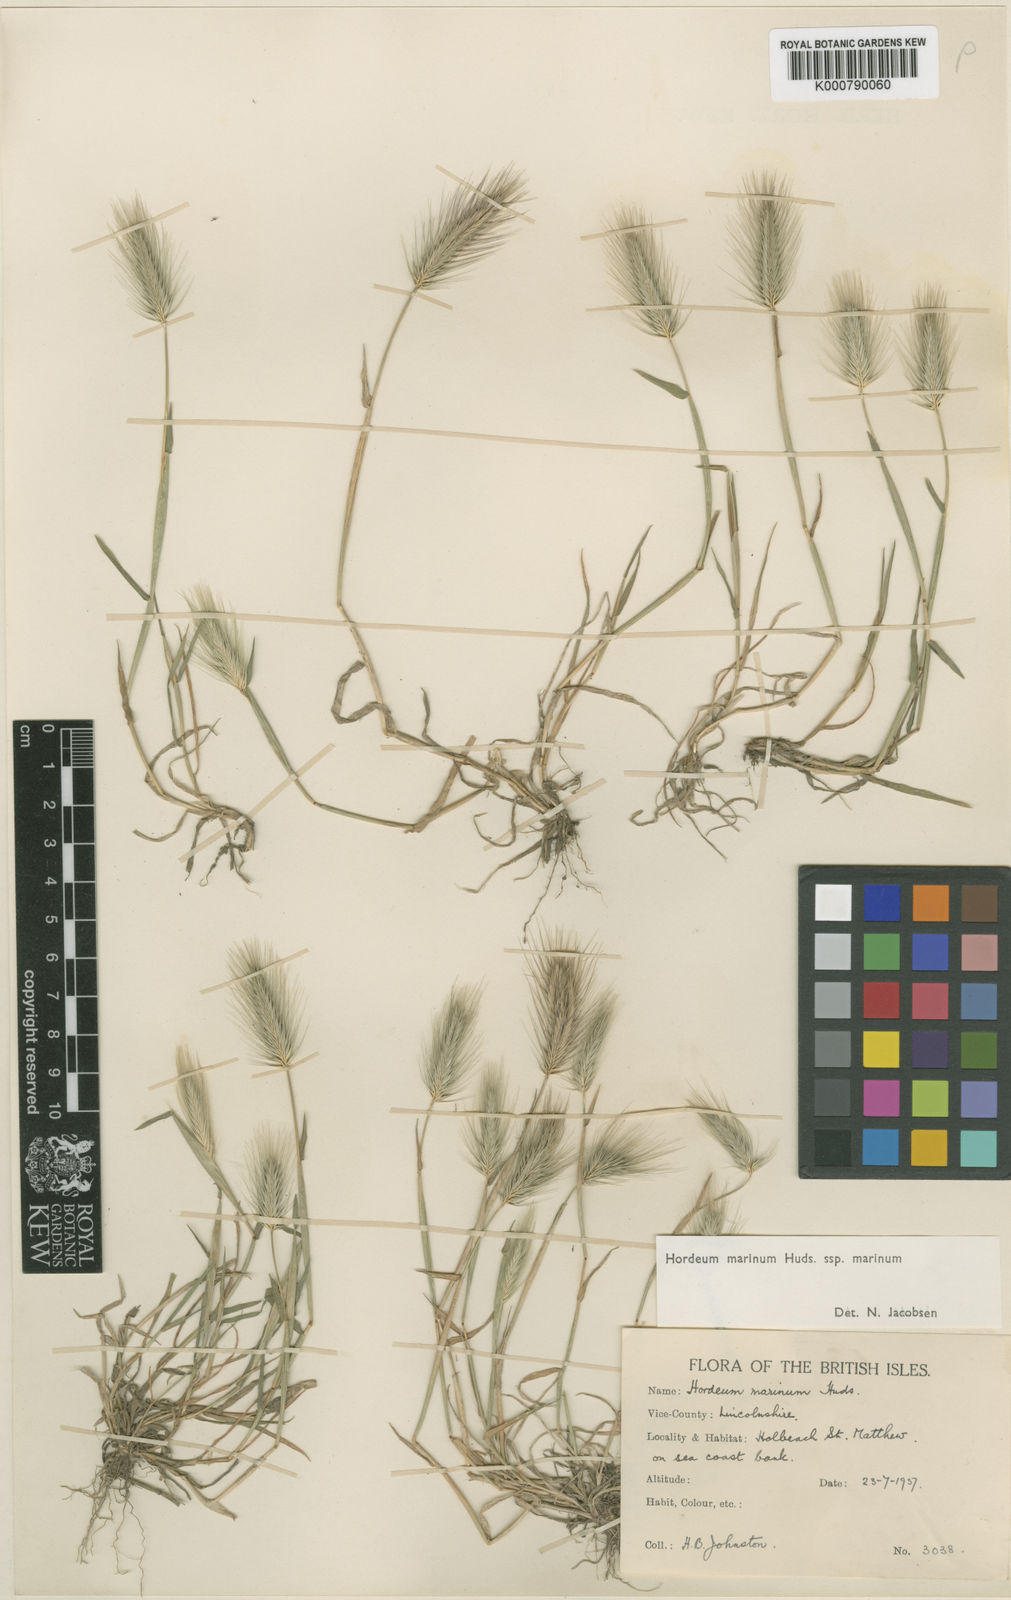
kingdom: Plantae
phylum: Tracheophyta
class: Liliopsida
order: Poales
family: Poaceae
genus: Hordeum
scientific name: Hordeum marinum
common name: Sea barley
